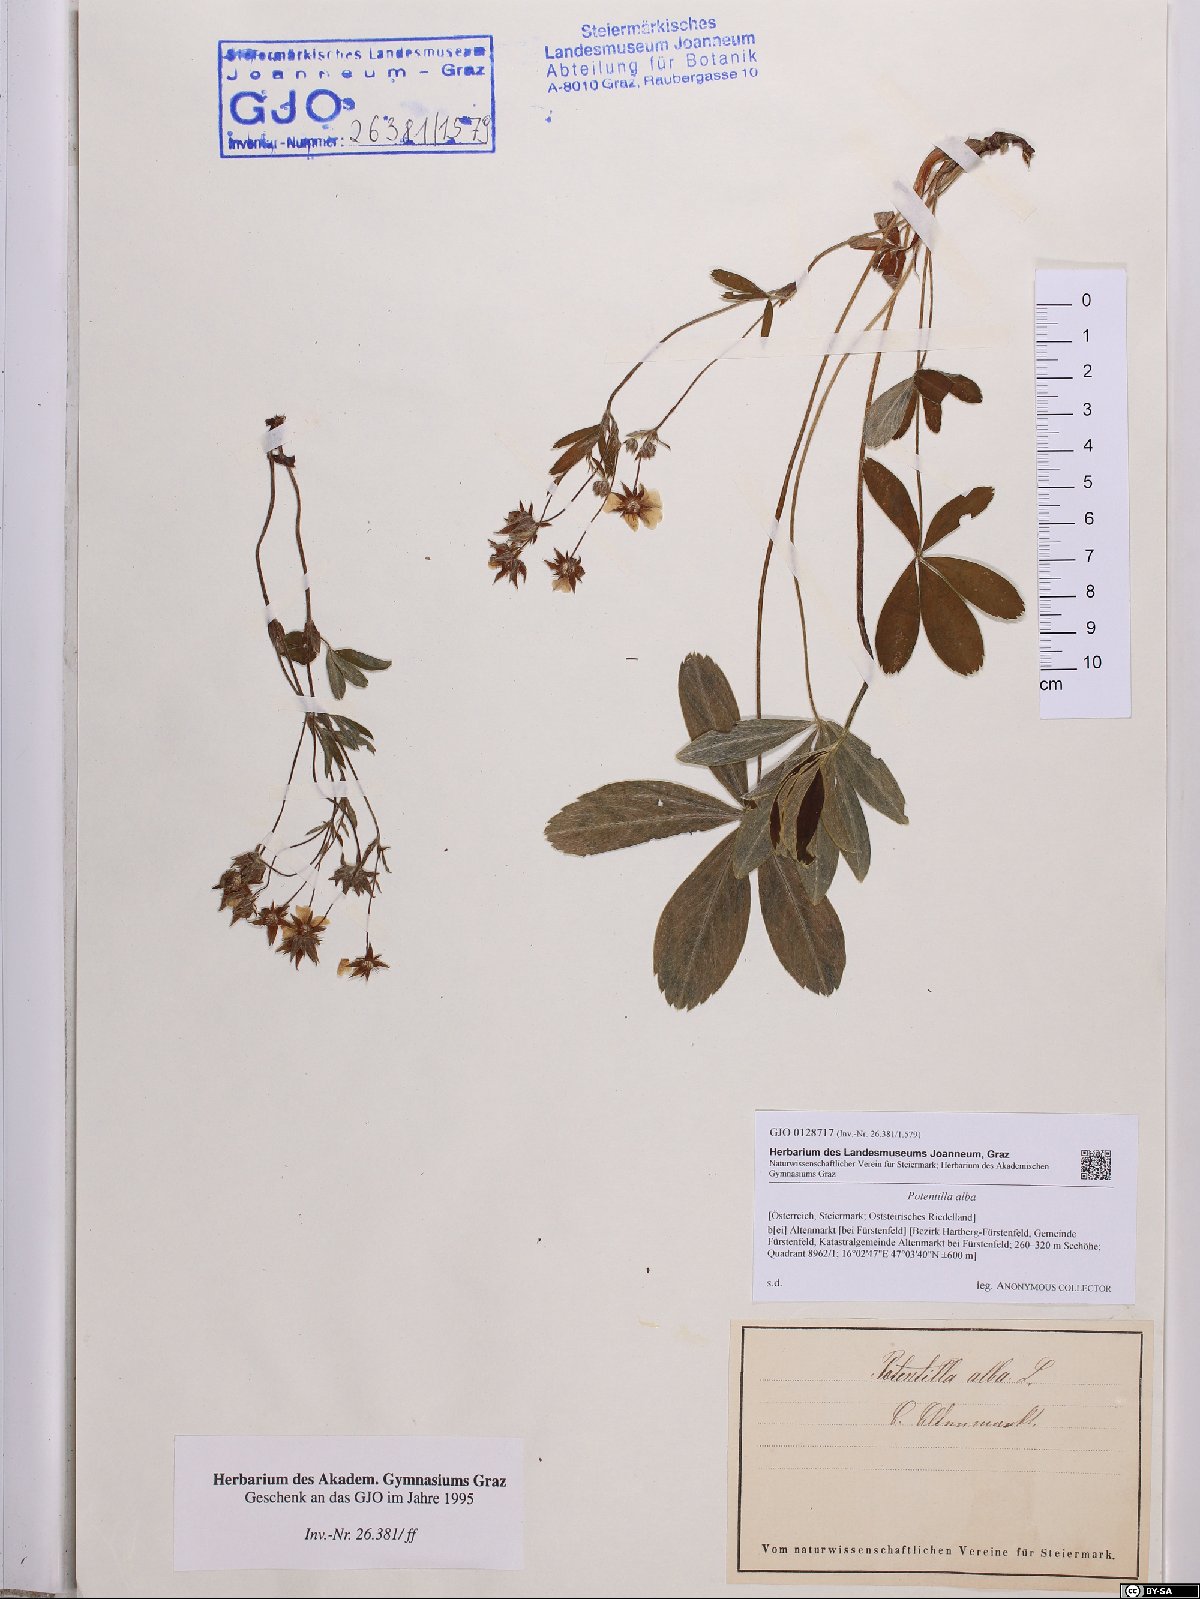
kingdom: Plantae
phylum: Tracheophyta
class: Magnoliopsida
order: Rosales
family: Rosaceae
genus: Potentilla
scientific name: Potentilla alba
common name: White cinquefoil
